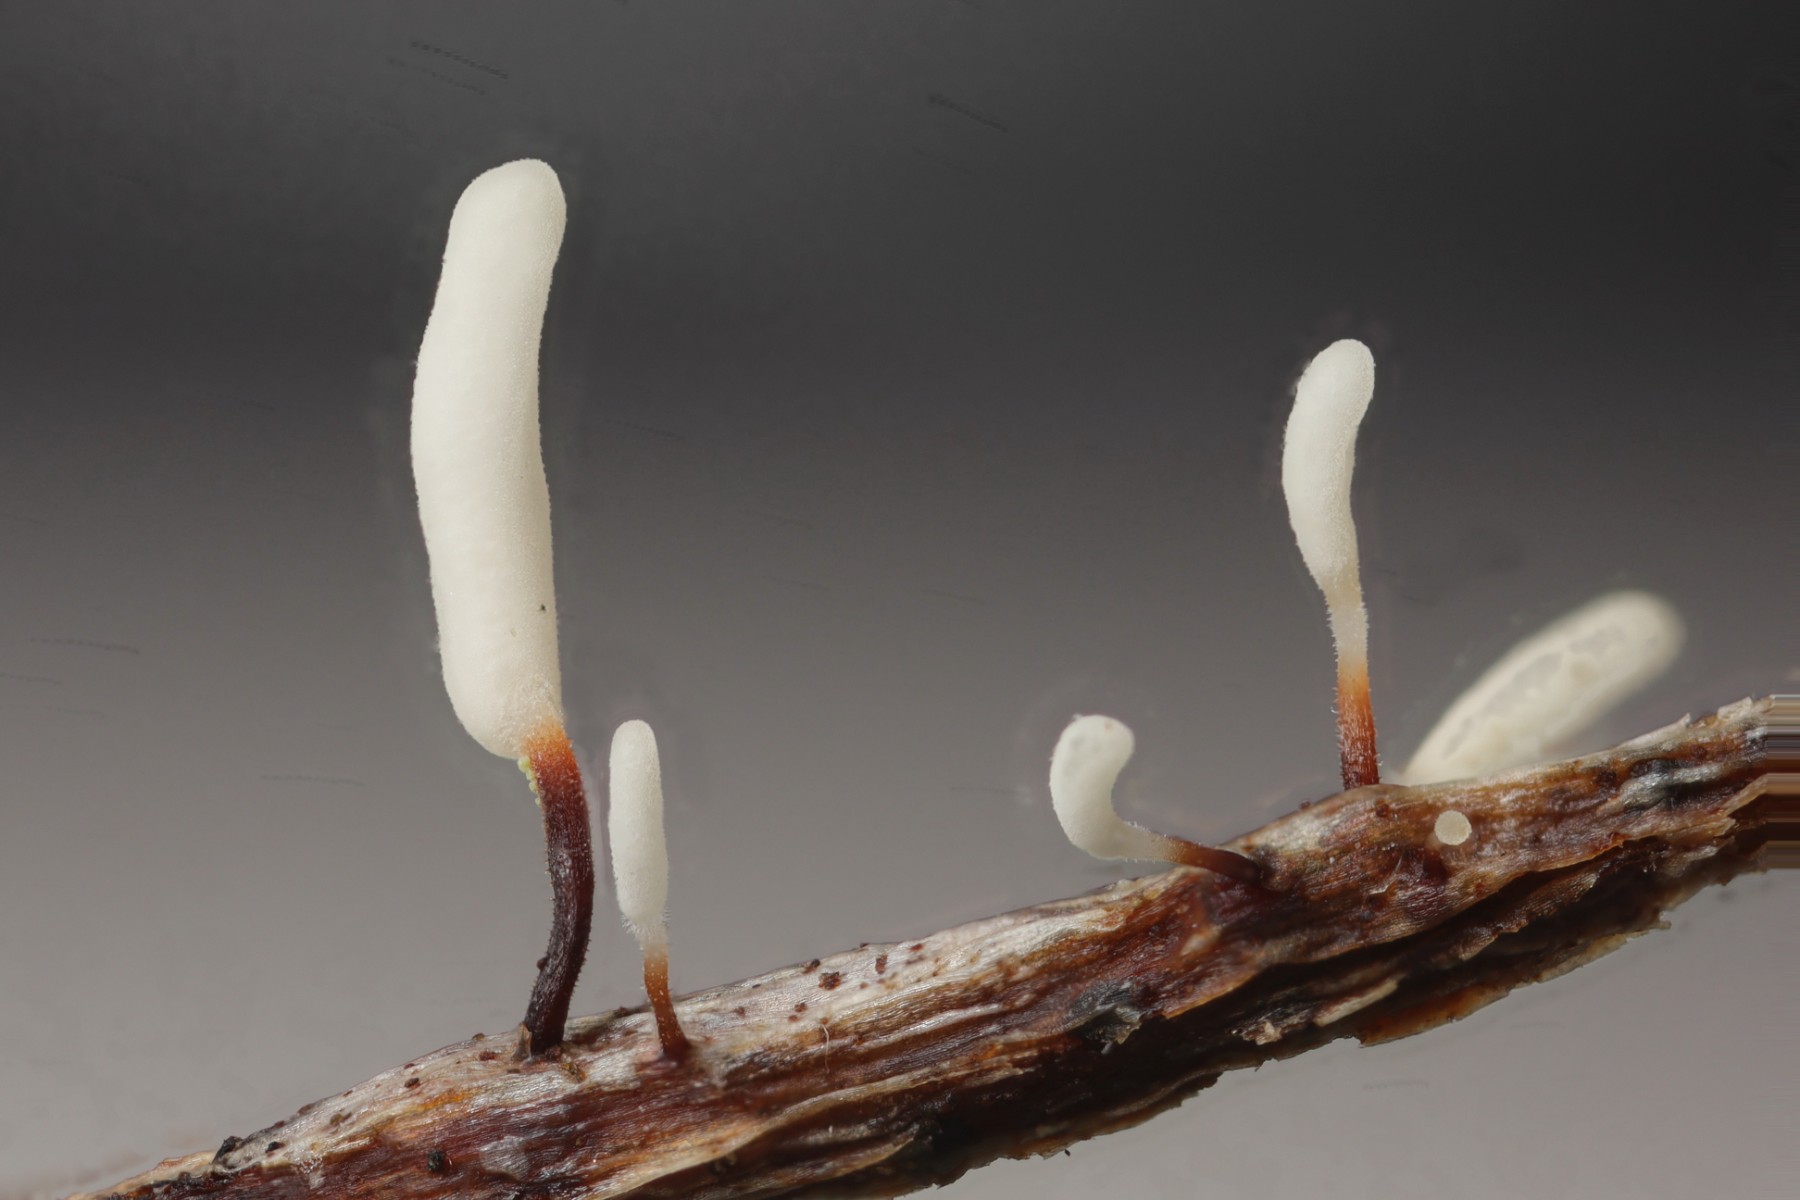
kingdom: Fungi
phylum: Basidiomycota
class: Agaricomycetes
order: Agaricales
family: Typhulaceae
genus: Typhula
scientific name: Typhula erythropus
